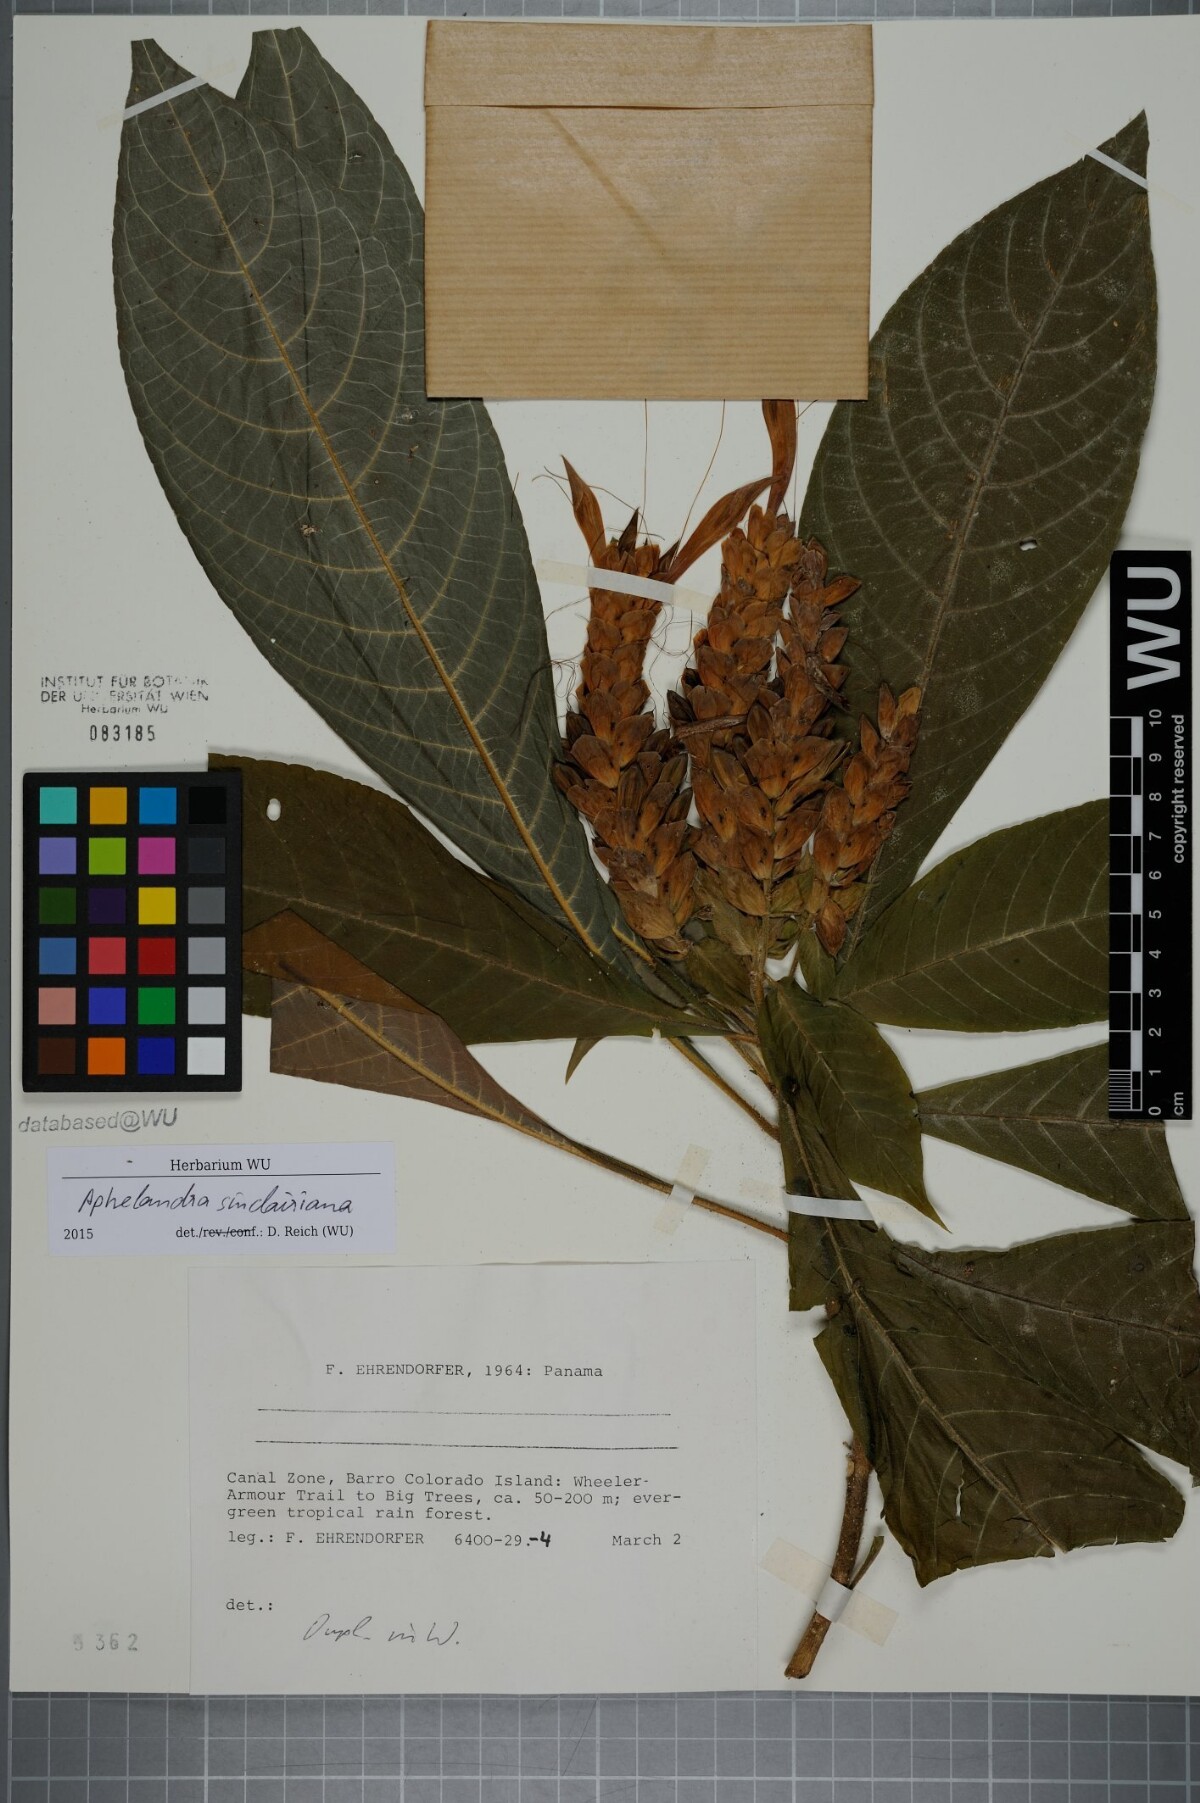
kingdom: Plantae
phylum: Tracheophyta
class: Magnoliopsida
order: Lamiales
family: Acanthaceae
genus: Aphelandra
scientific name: Aphelandra sinclairiana
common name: Coral aphelandra
